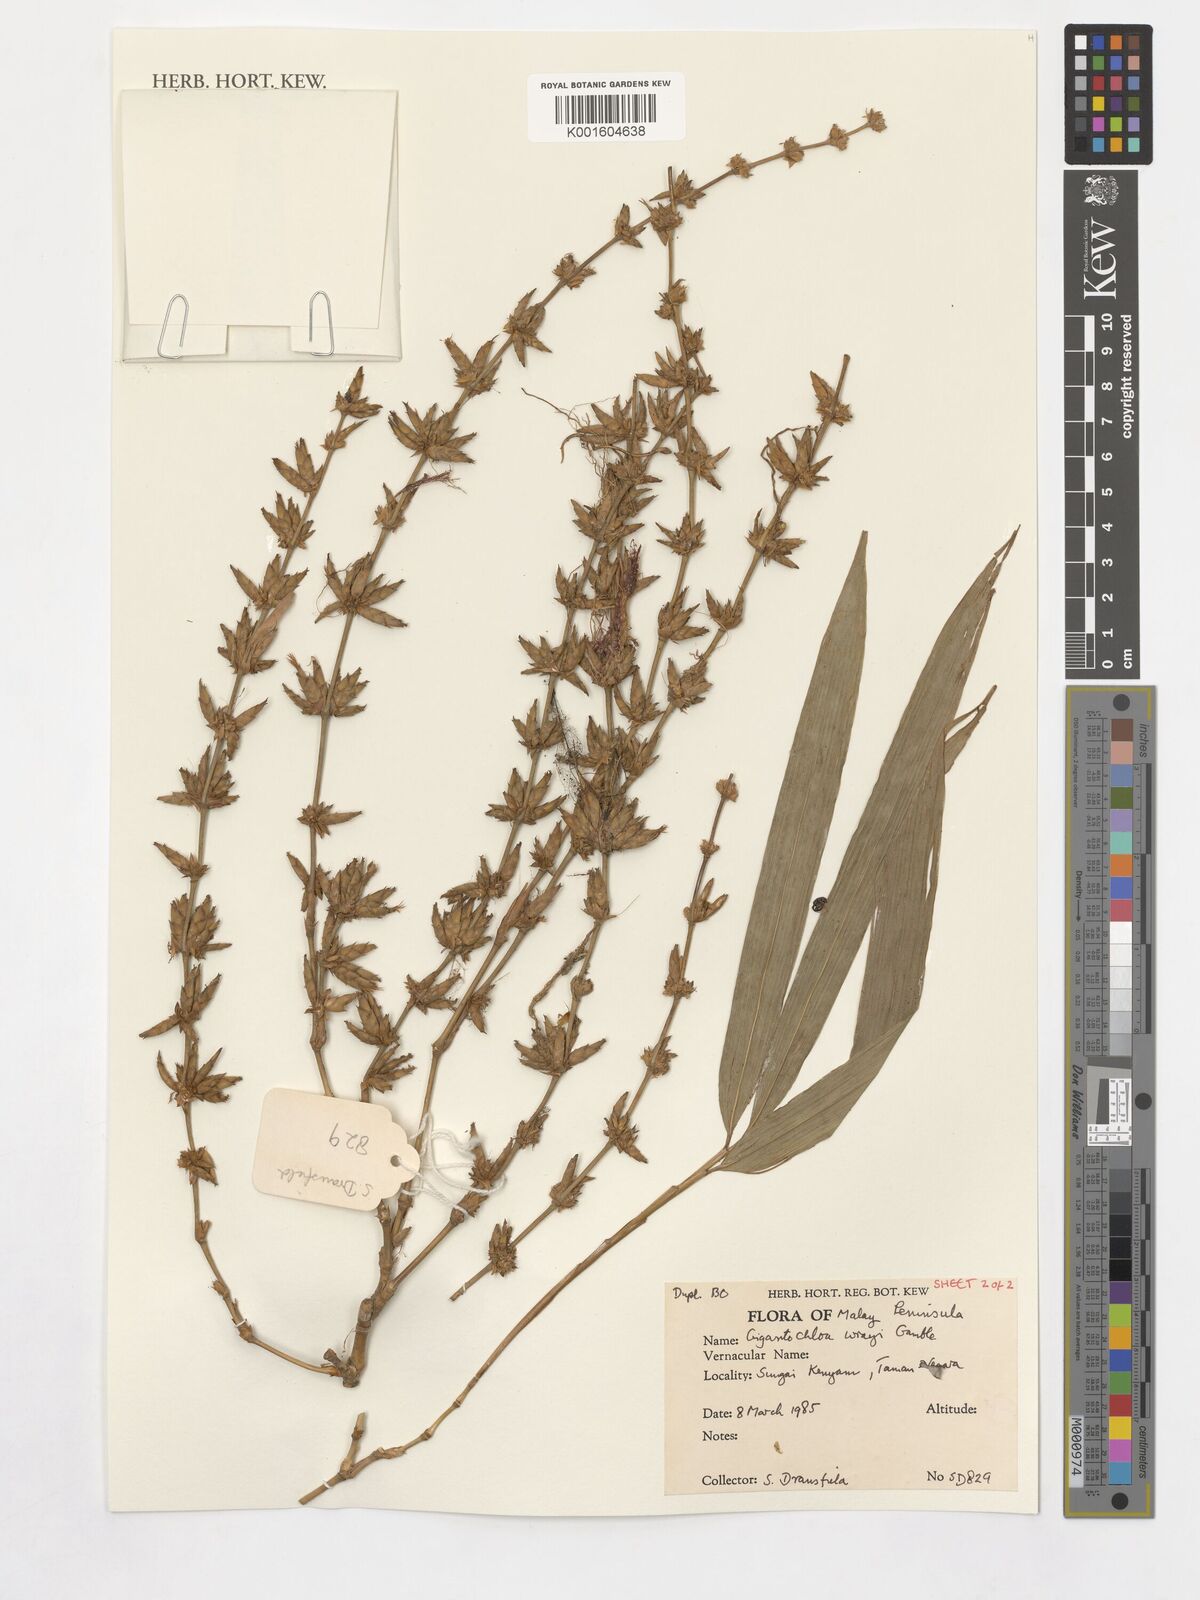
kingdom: Plantae
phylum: Tracheophyta
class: Liliopsida
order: Poales
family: Poaceae
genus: Gigantochloa
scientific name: Gigantochloa wrayi
